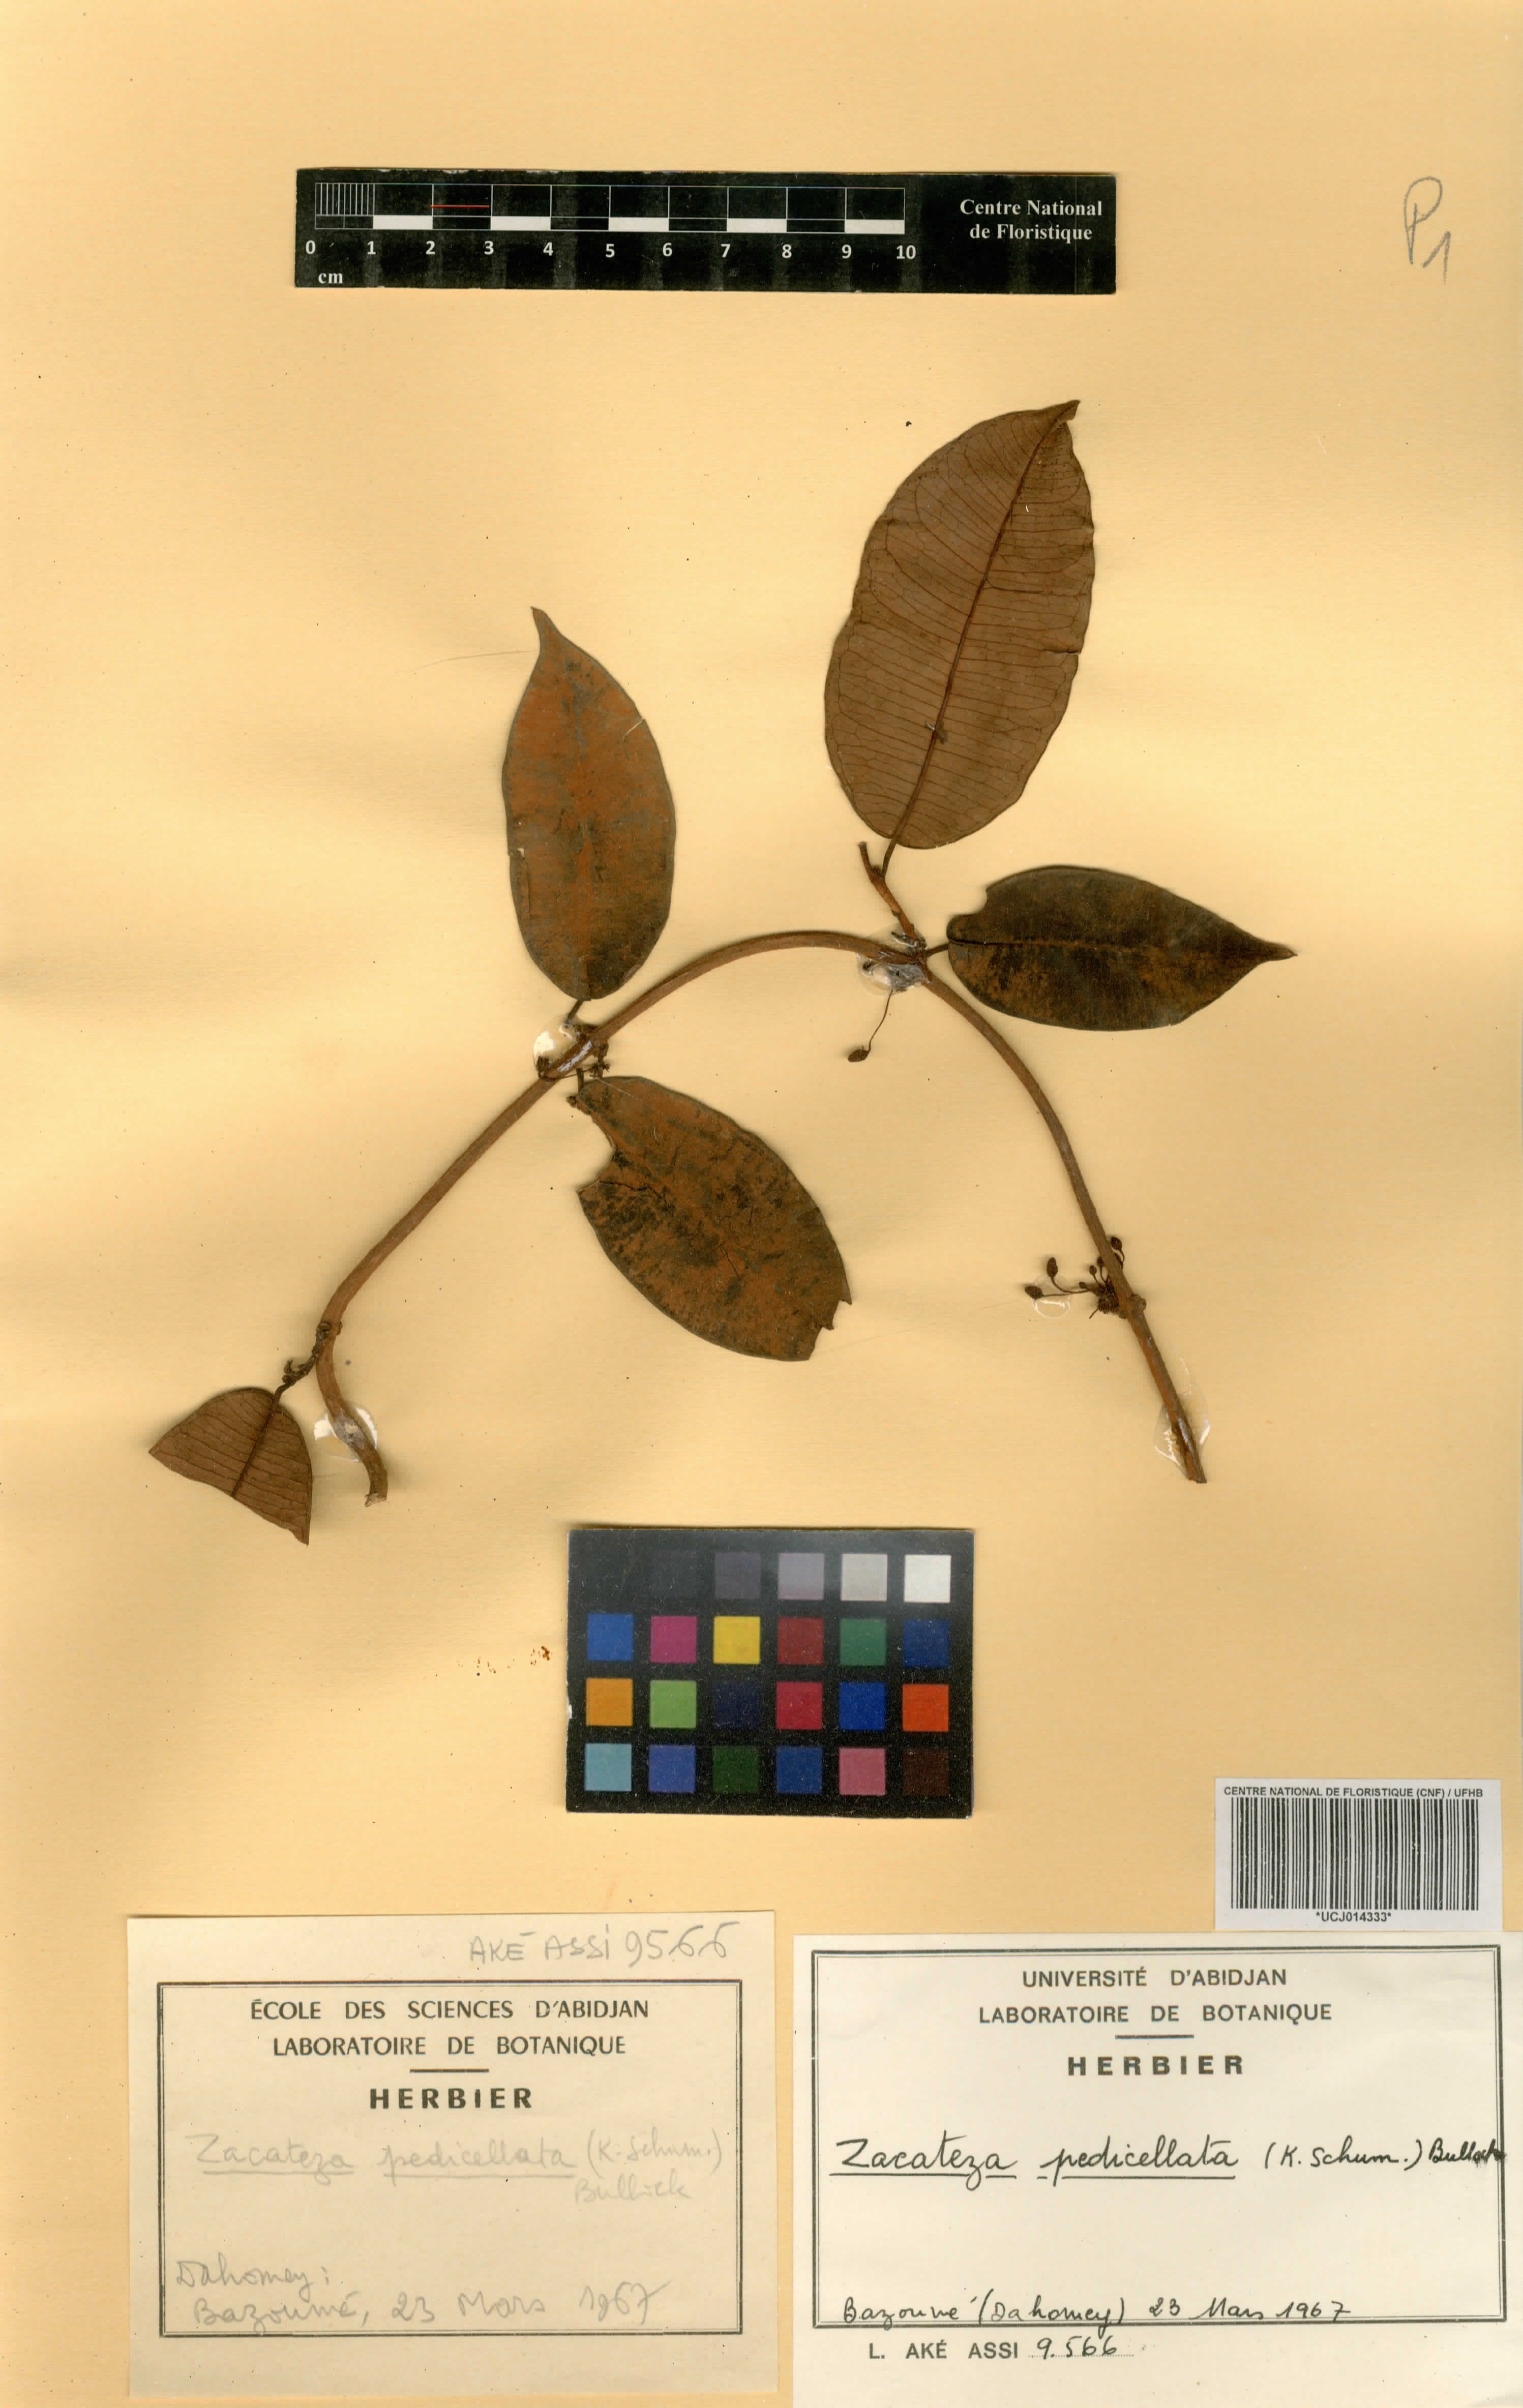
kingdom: Plantae
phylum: Tracheophyta
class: Magnoliopsida
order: Gentianales
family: Apocynaceae
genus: Zacateza
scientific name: Zacateza pedicellata
